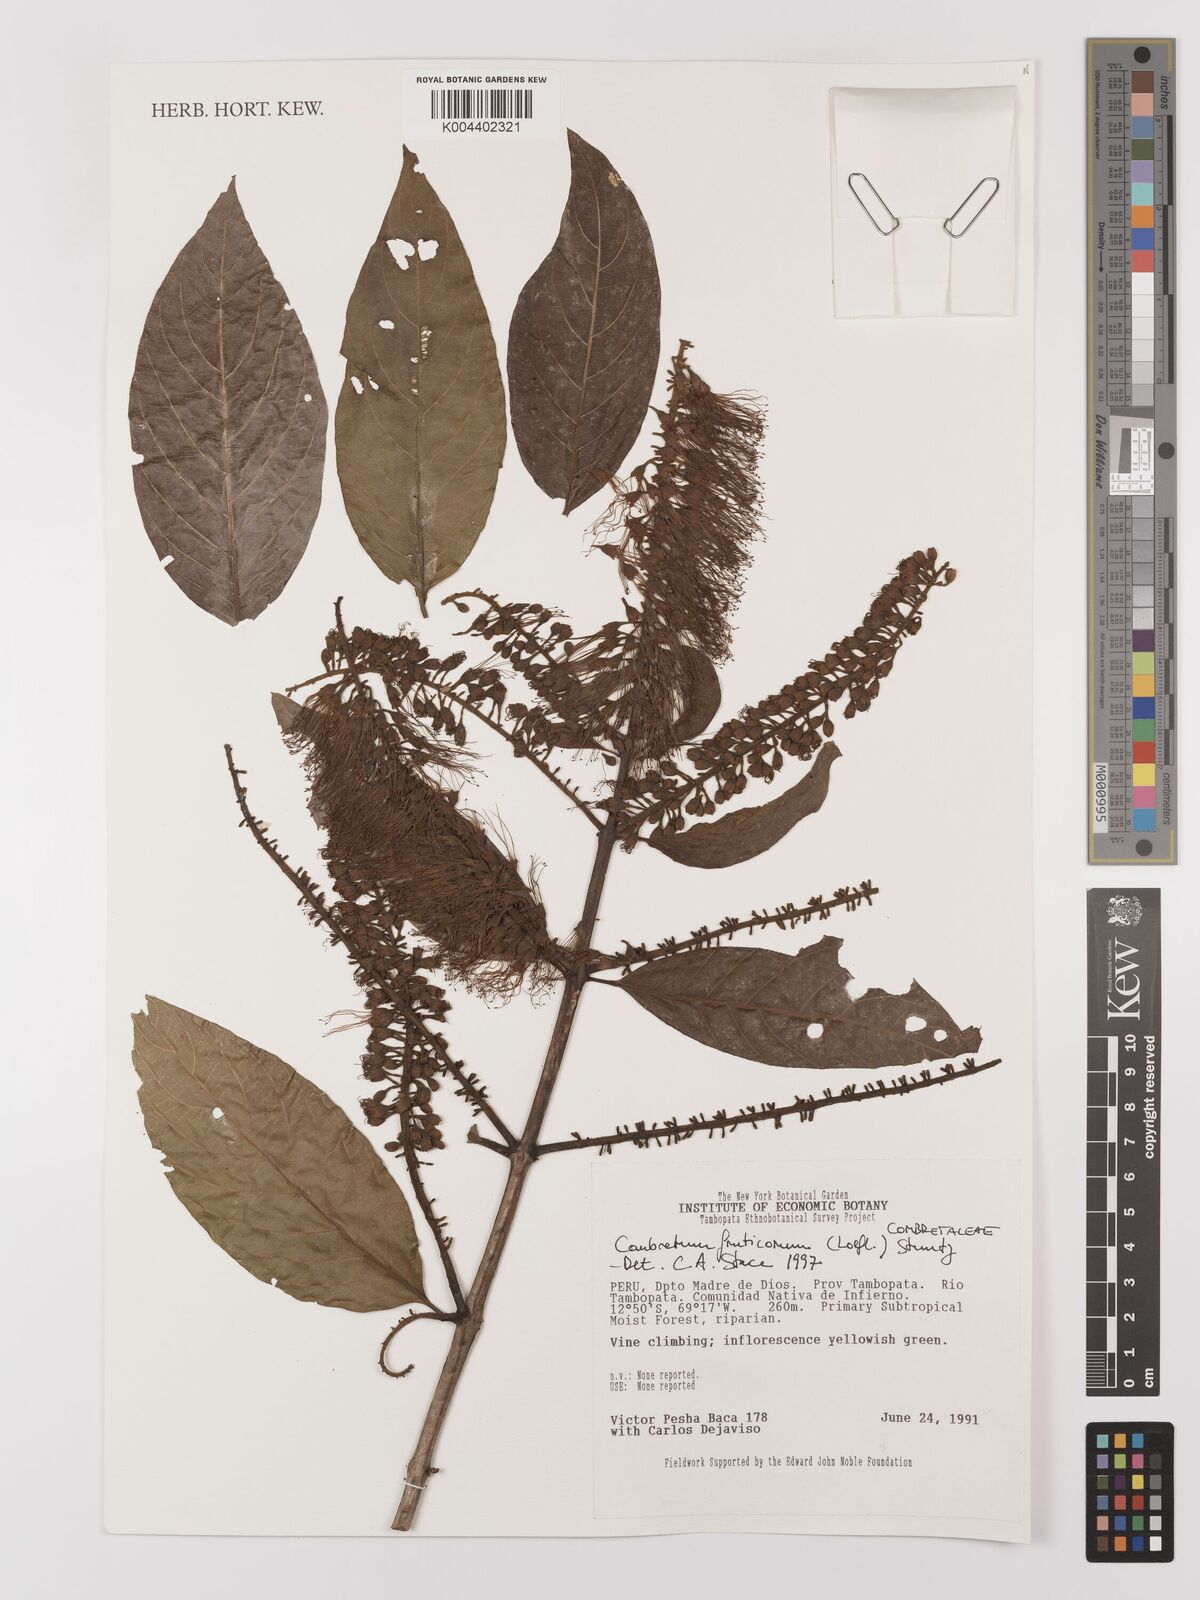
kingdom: Plantae
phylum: Tracheophyta
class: Magnoliopsida
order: Myrtales
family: Combretaceae
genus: Combretum
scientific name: Combretum fruticosum
